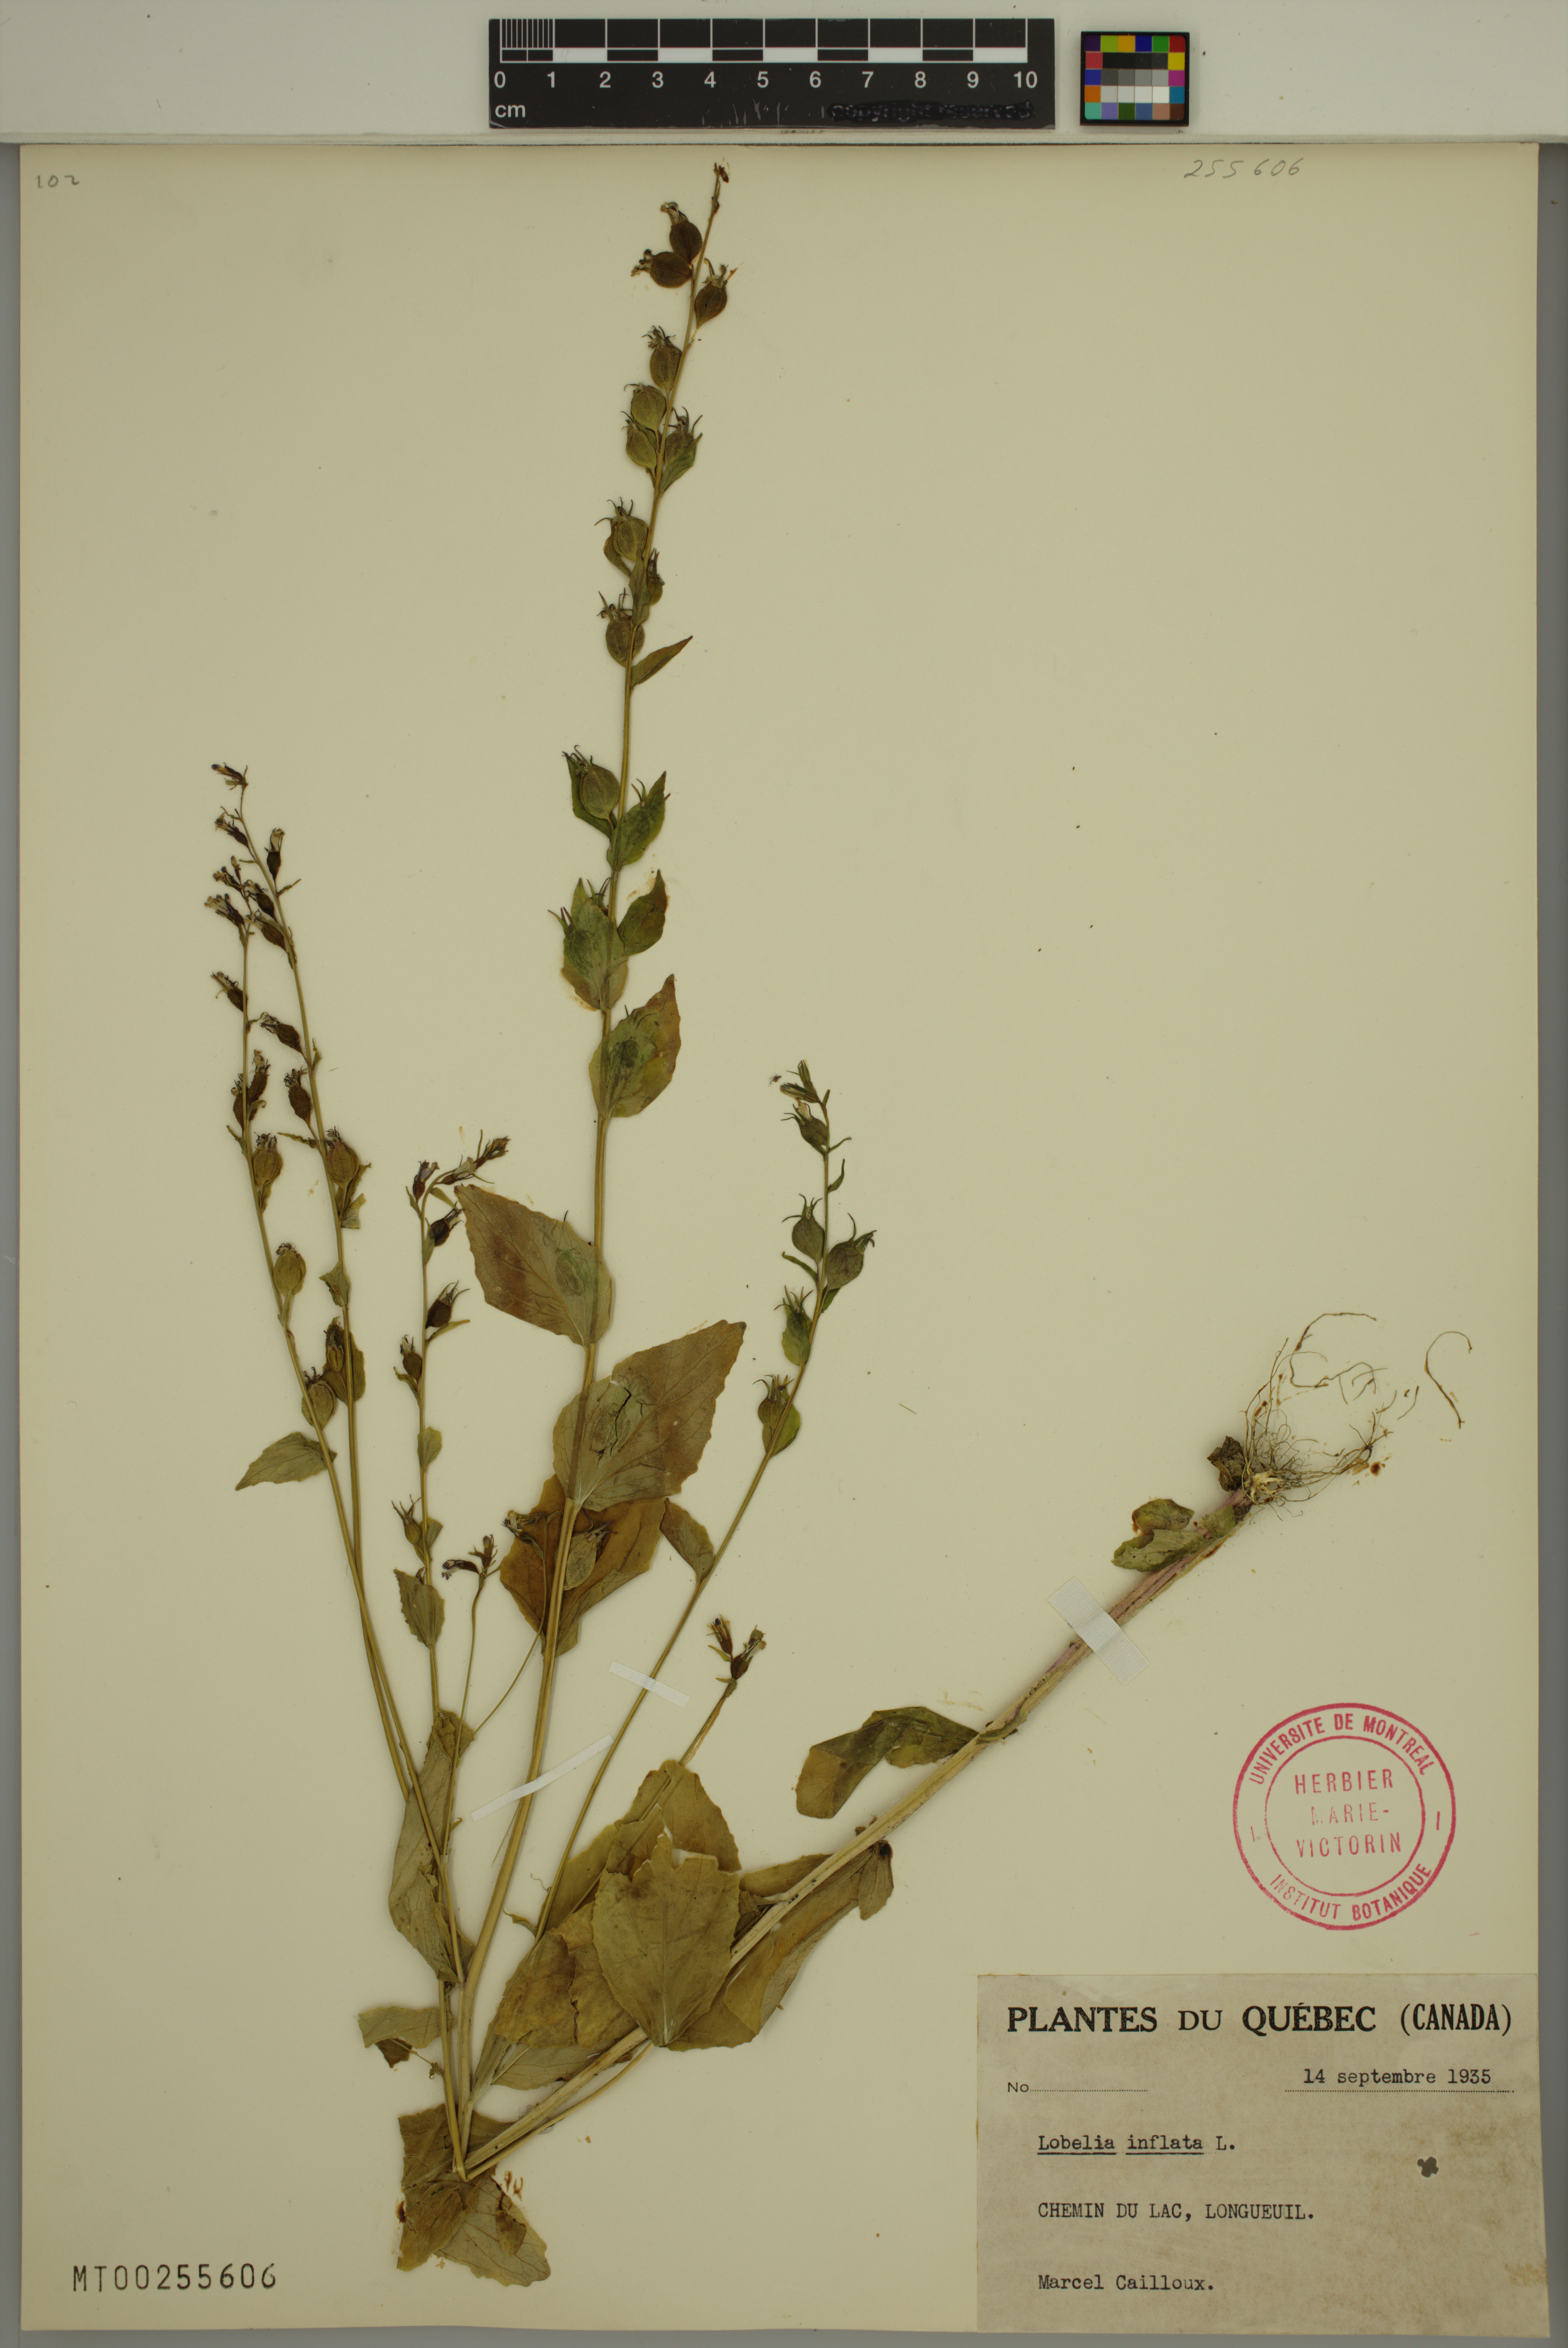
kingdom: Plantae
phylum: Tracheophyta
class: Magnoliopsida
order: Asterales
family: Campanulaceae
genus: Lobelia
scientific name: Lobelia inflata
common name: Indian tobacco
